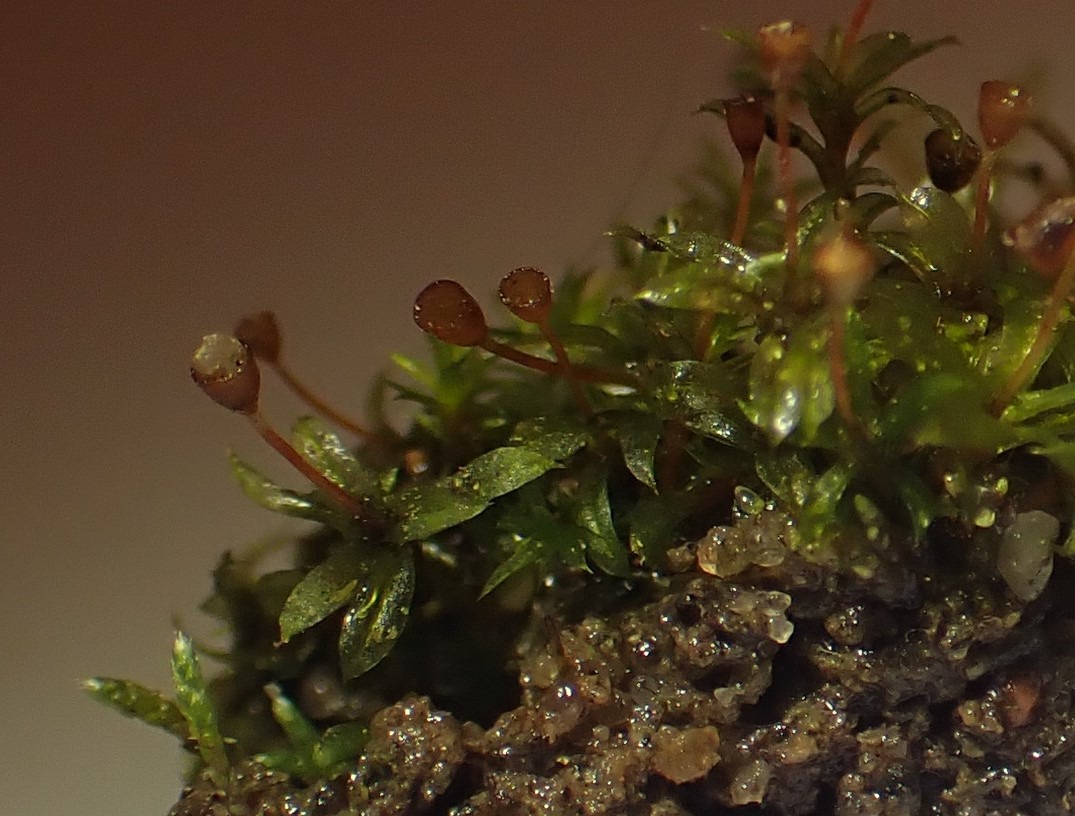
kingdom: Plantae
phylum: Bryophyta
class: Bryopsida
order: Pottiales
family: Pottiaceae
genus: Tortula
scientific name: Tortula truncata
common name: Vidmundet bægermos
